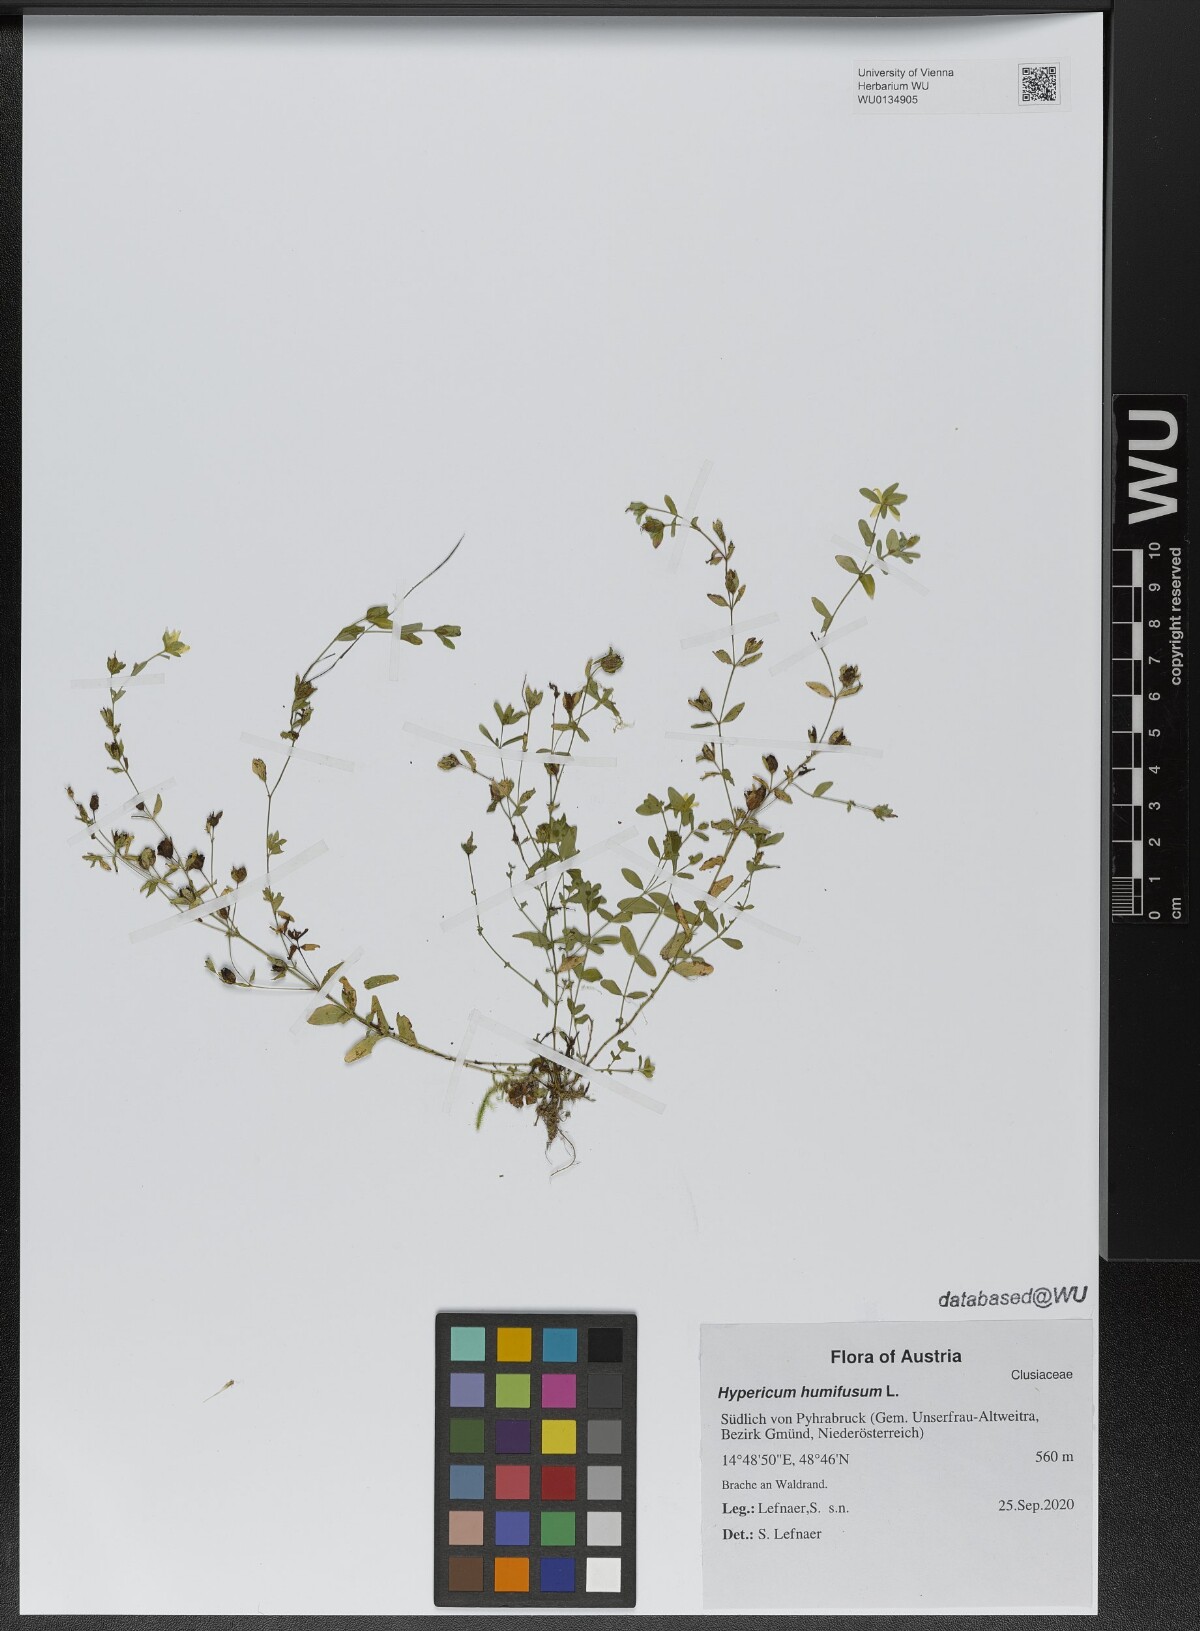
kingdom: Plantae
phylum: Tracheophyta
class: Magnoliopsida
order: Malpighiales
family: Hypericaceae
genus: Hypericum
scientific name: Hypericum humifusum
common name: Trailing st. john's-wort
